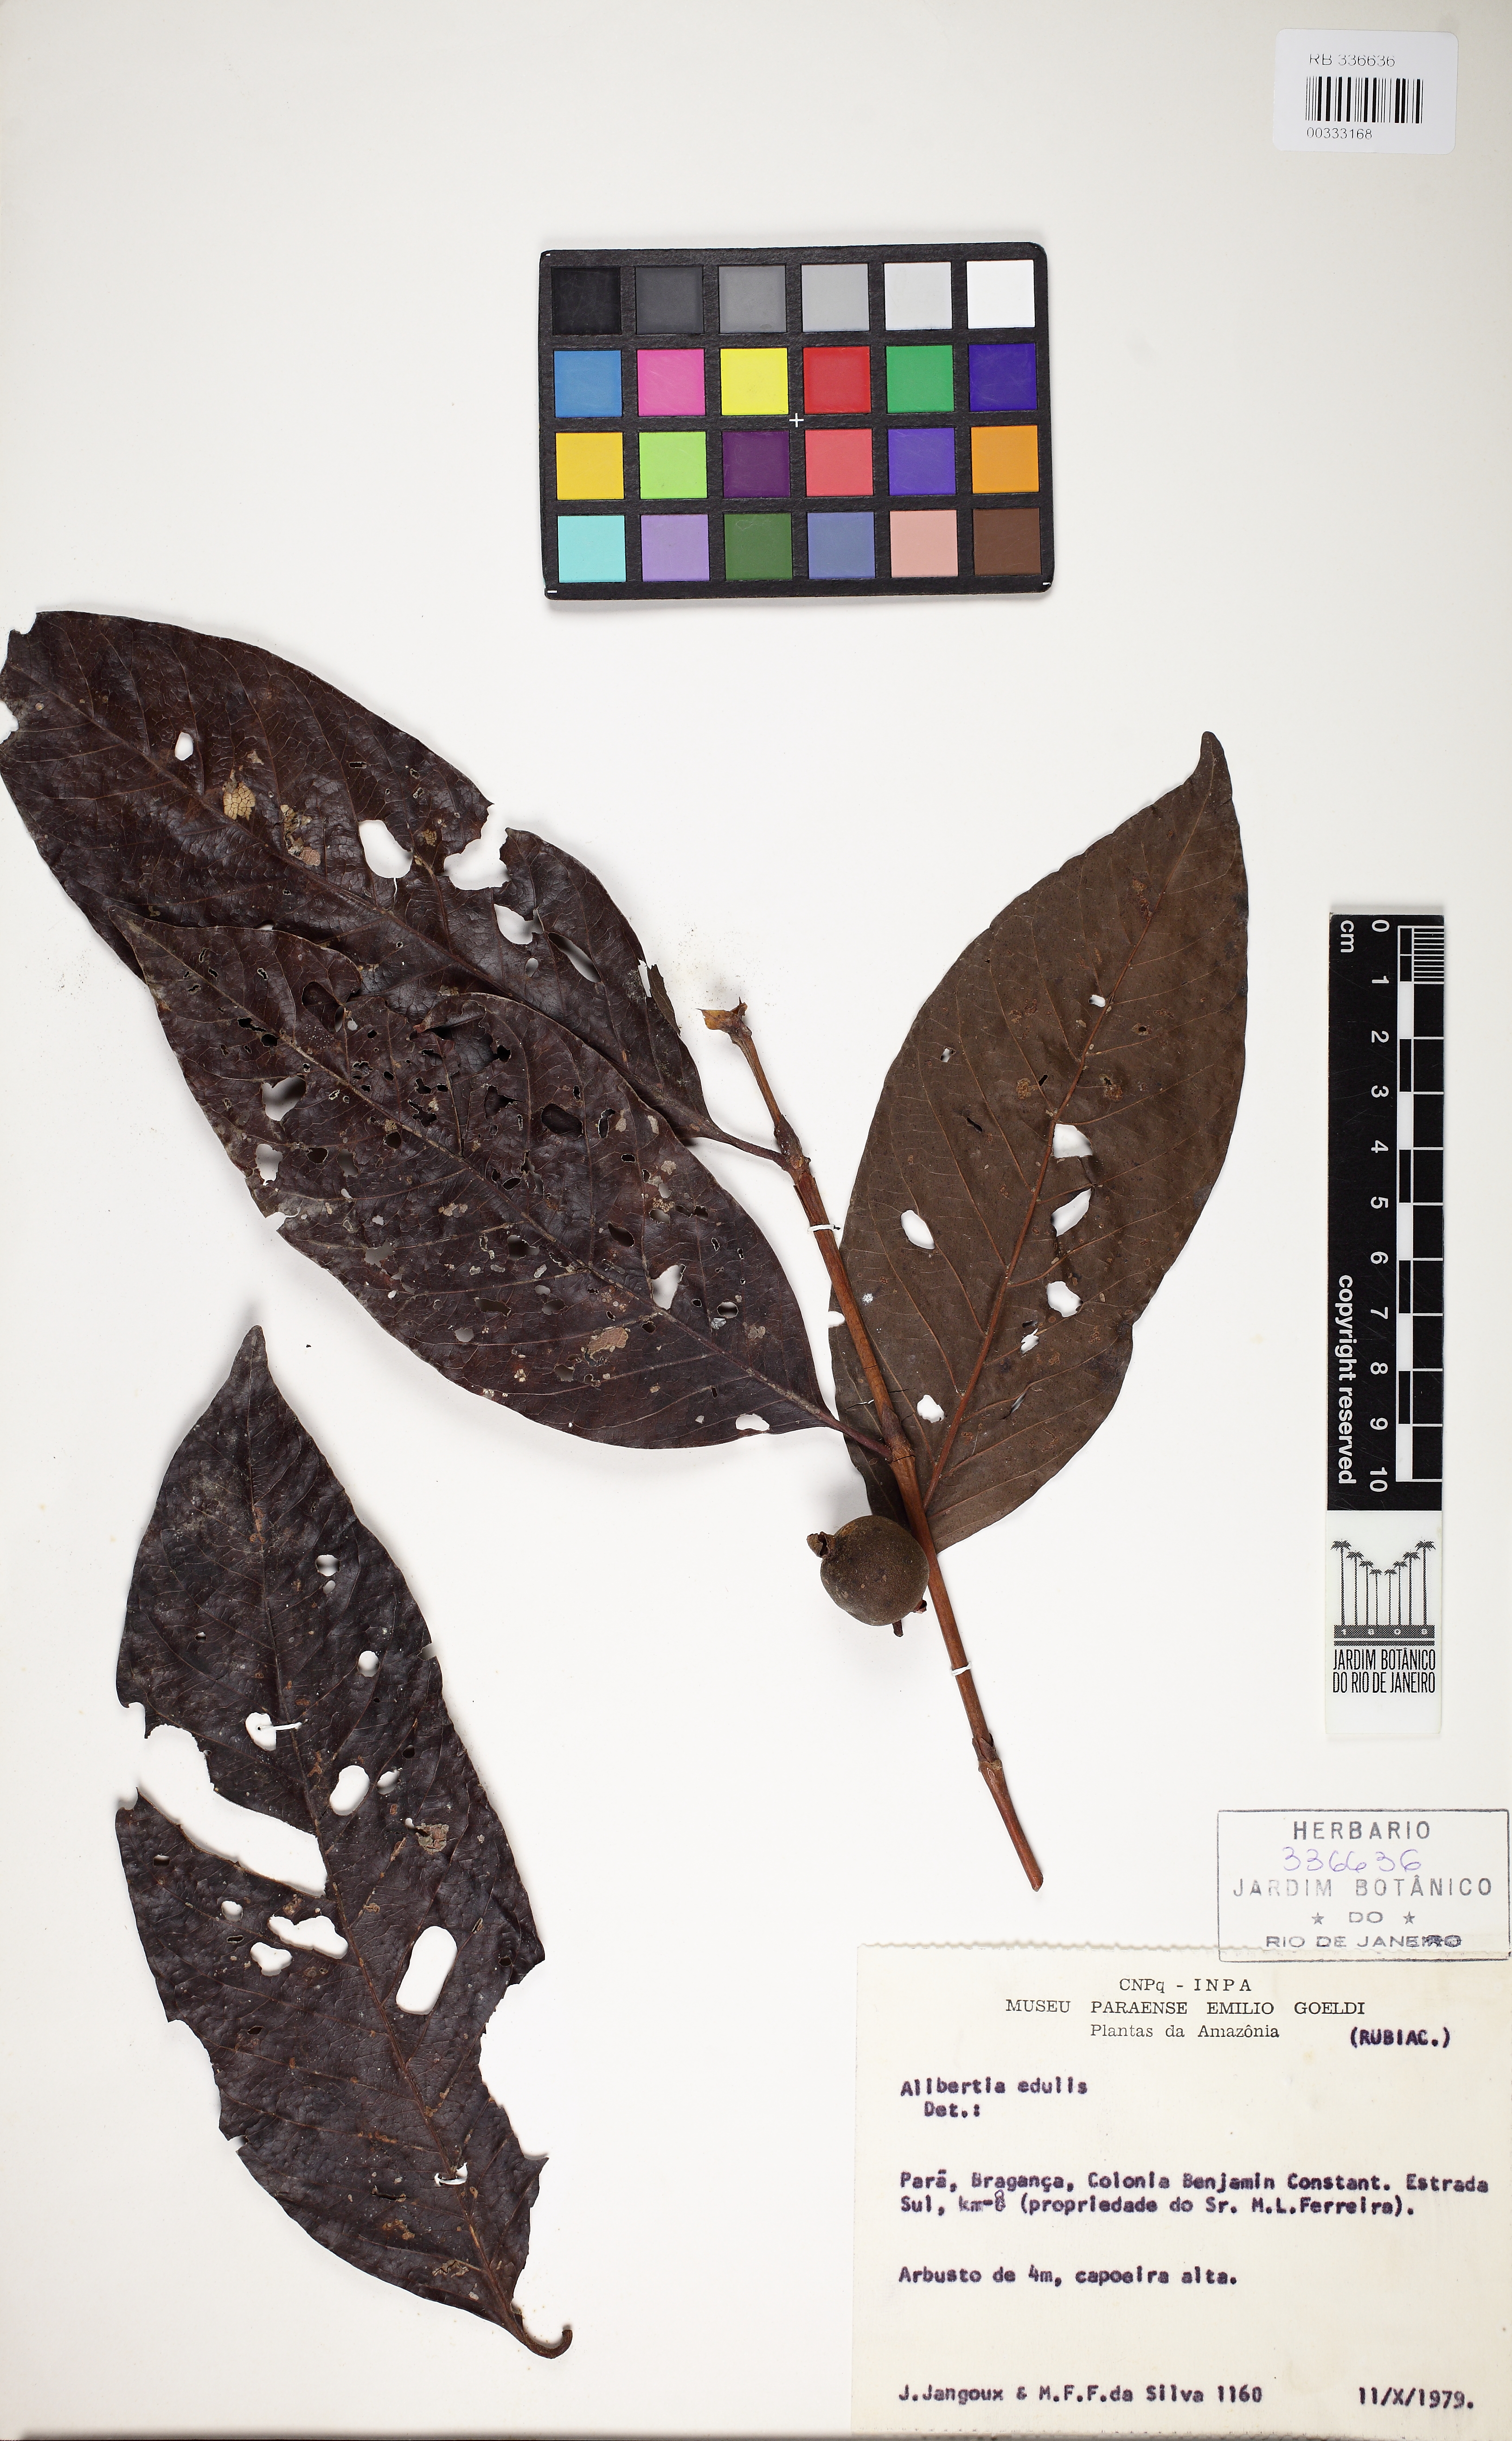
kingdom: Plantae
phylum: Tracheophyta
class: Magnoliopsida
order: Gentianales
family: Rubiaceae
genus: Alibertia
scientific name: Alibertia edulis
